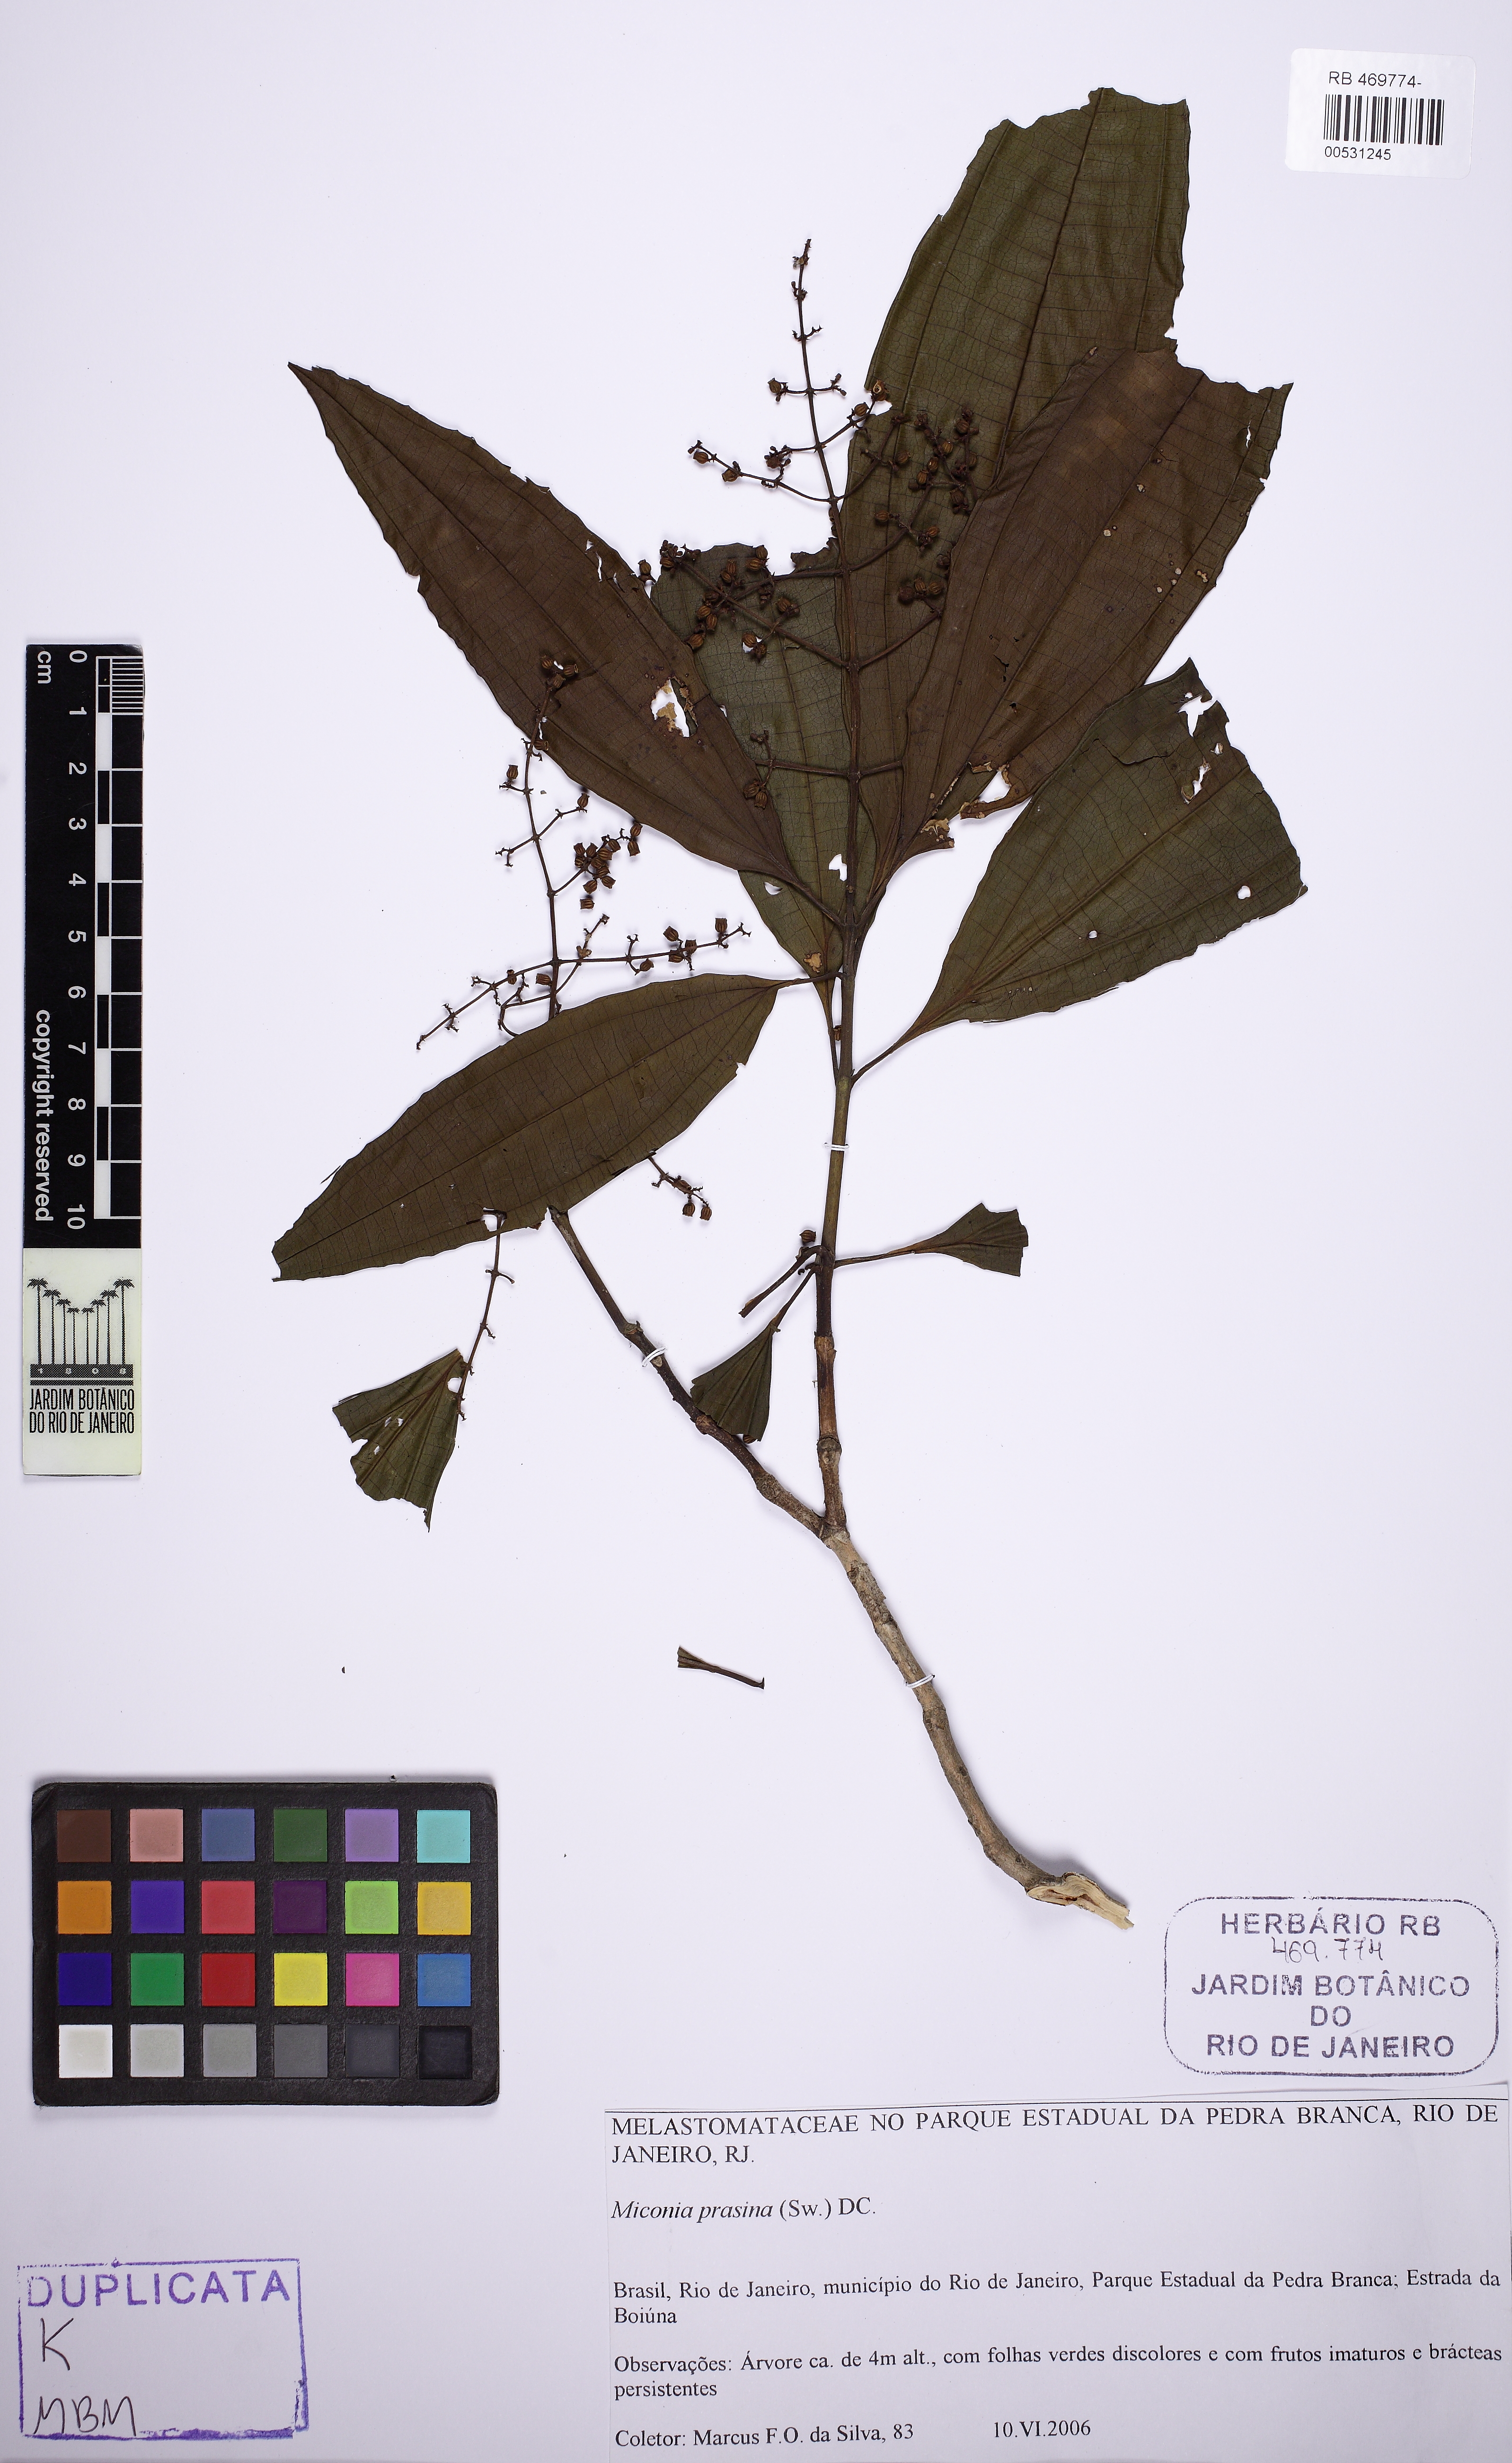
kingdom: Plantae
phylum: Tracheophyta
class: Magnoliopsida
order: Myrtales
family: Melastomataceae
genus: Miconia
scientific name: Miconia prasina
